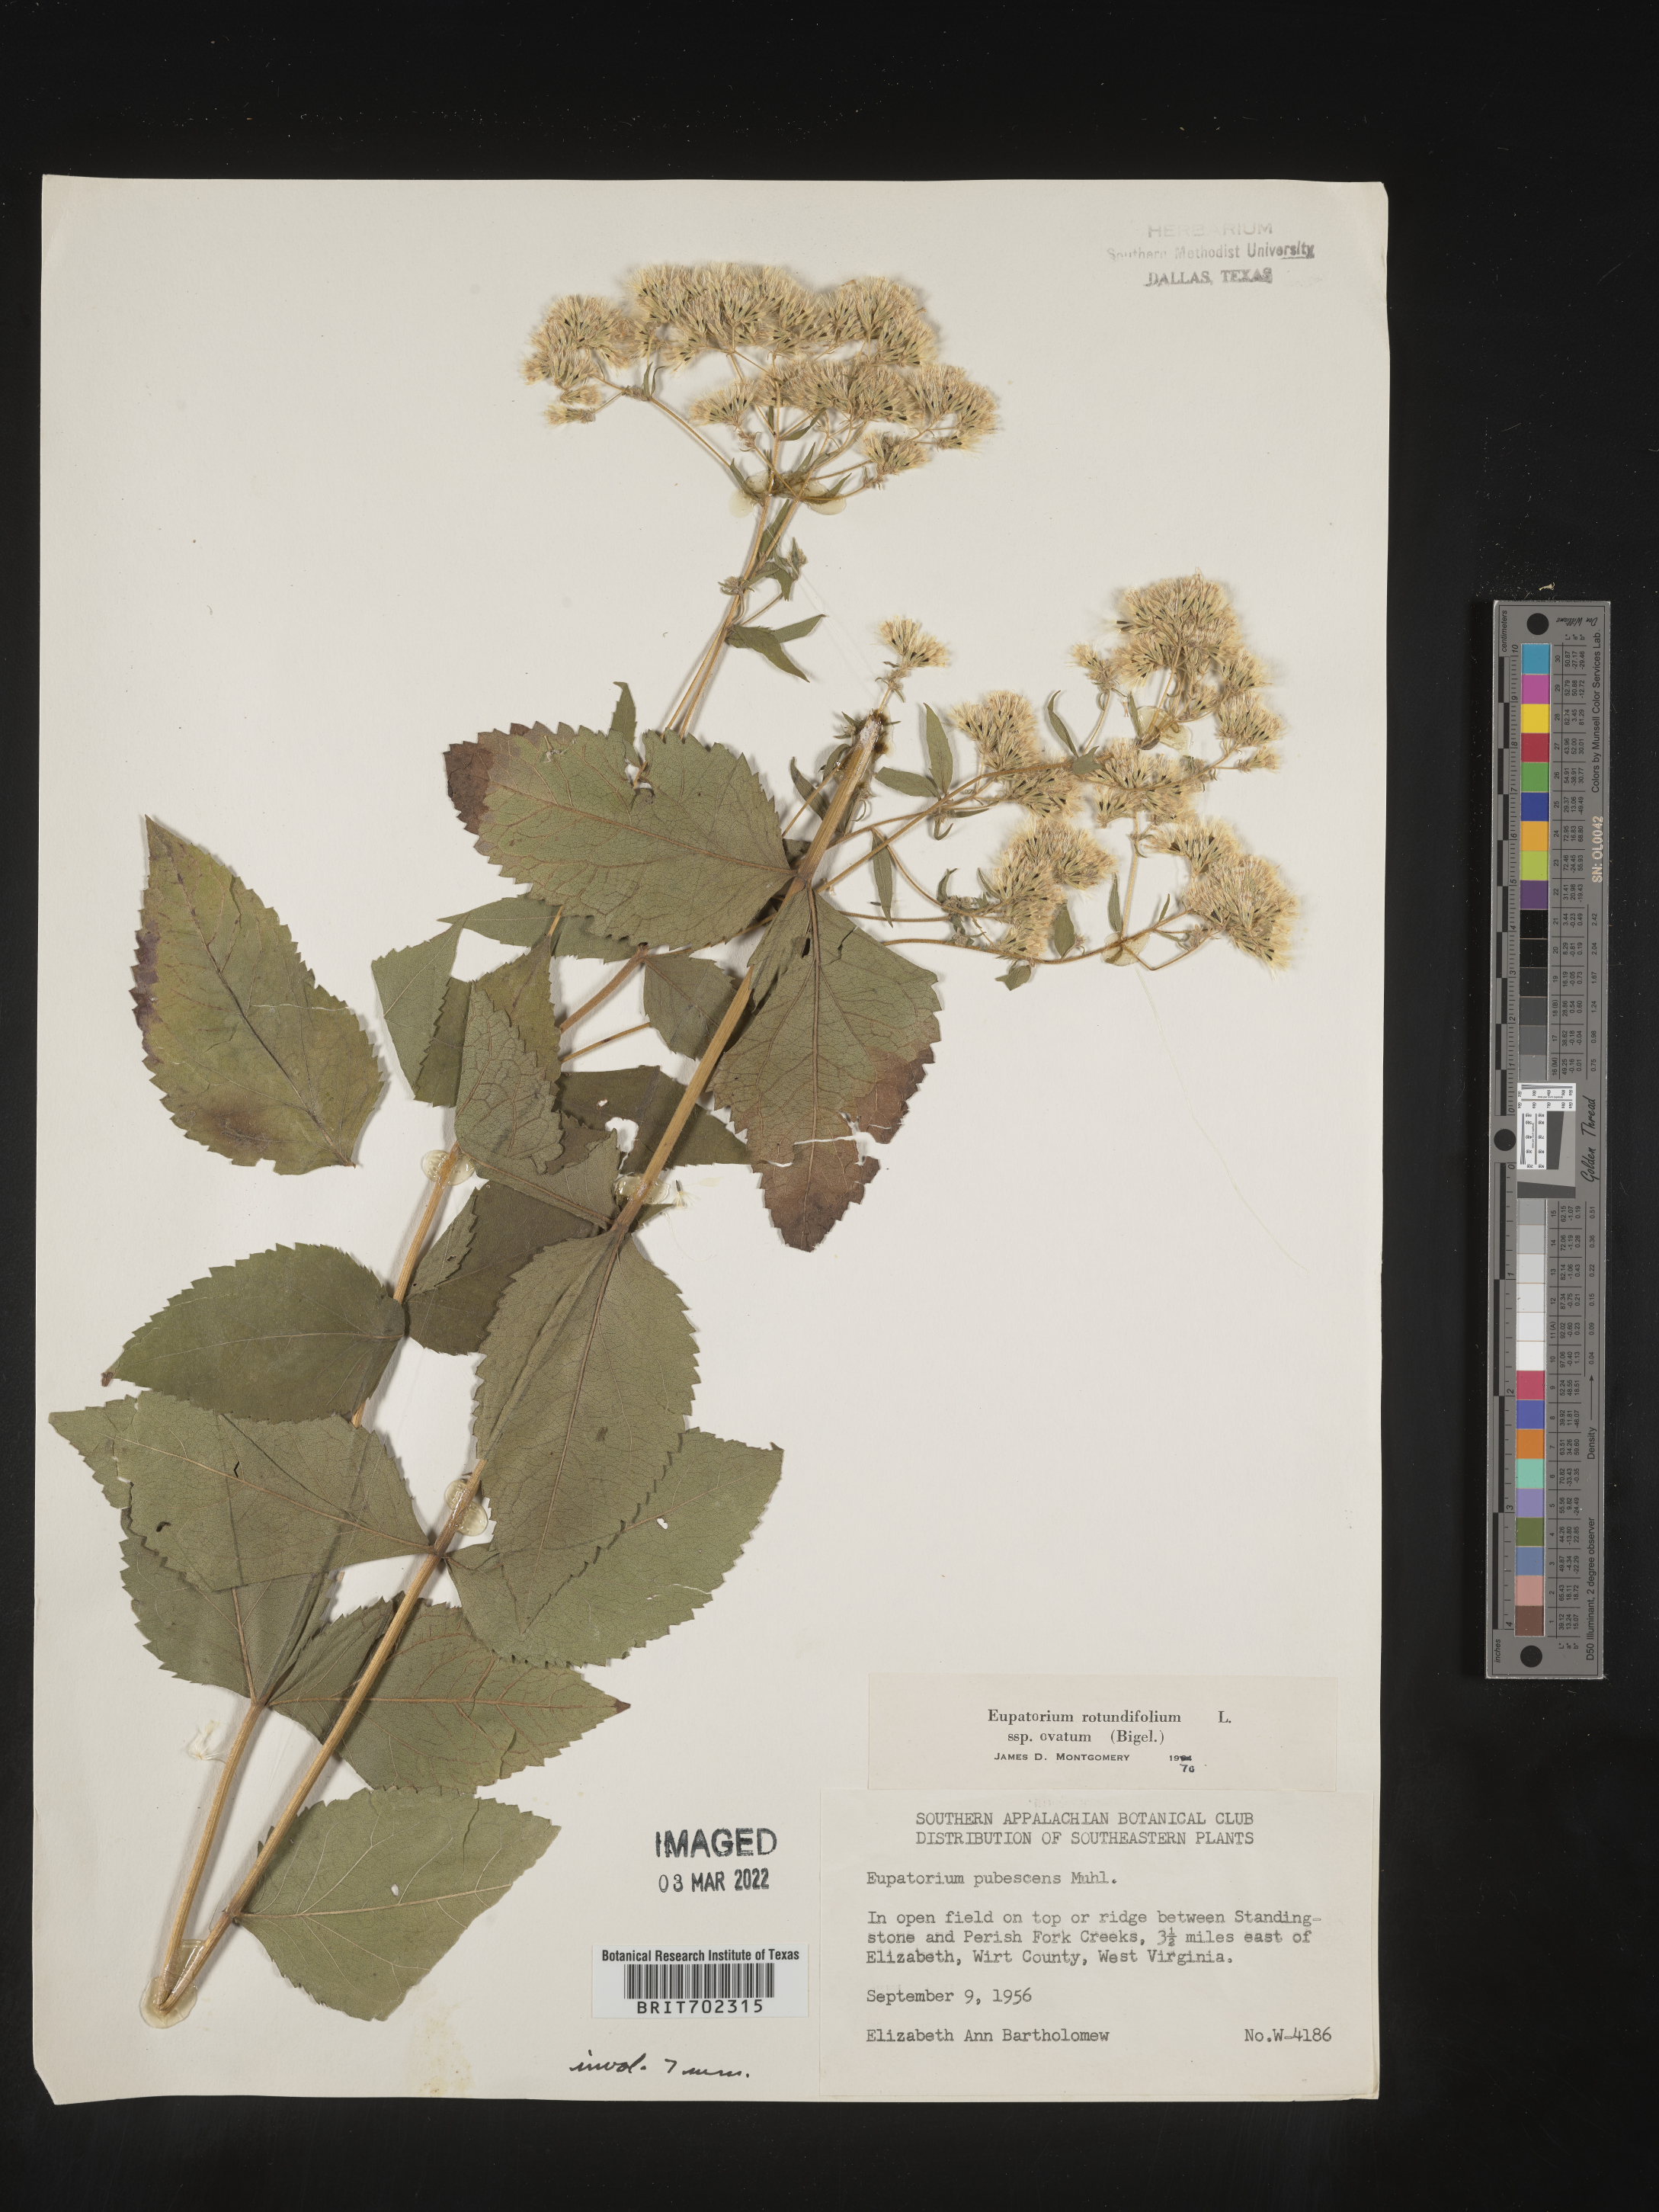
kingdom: Plantae
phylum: Tracheophyta
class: Magnoliopsida
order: Asterales
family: Asteraceae
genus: Eupatorium
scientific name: Eupatorium rotundifolium
